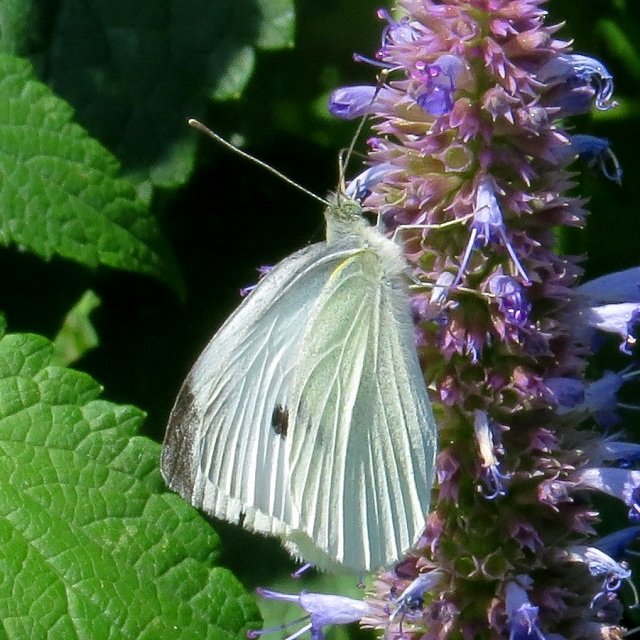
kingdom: Animalia
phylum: Arthropoda
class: Insecta
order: Lepidoptera
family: Pieridae
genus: Pieris
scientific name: Pieris rapae
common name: Cabbage White
